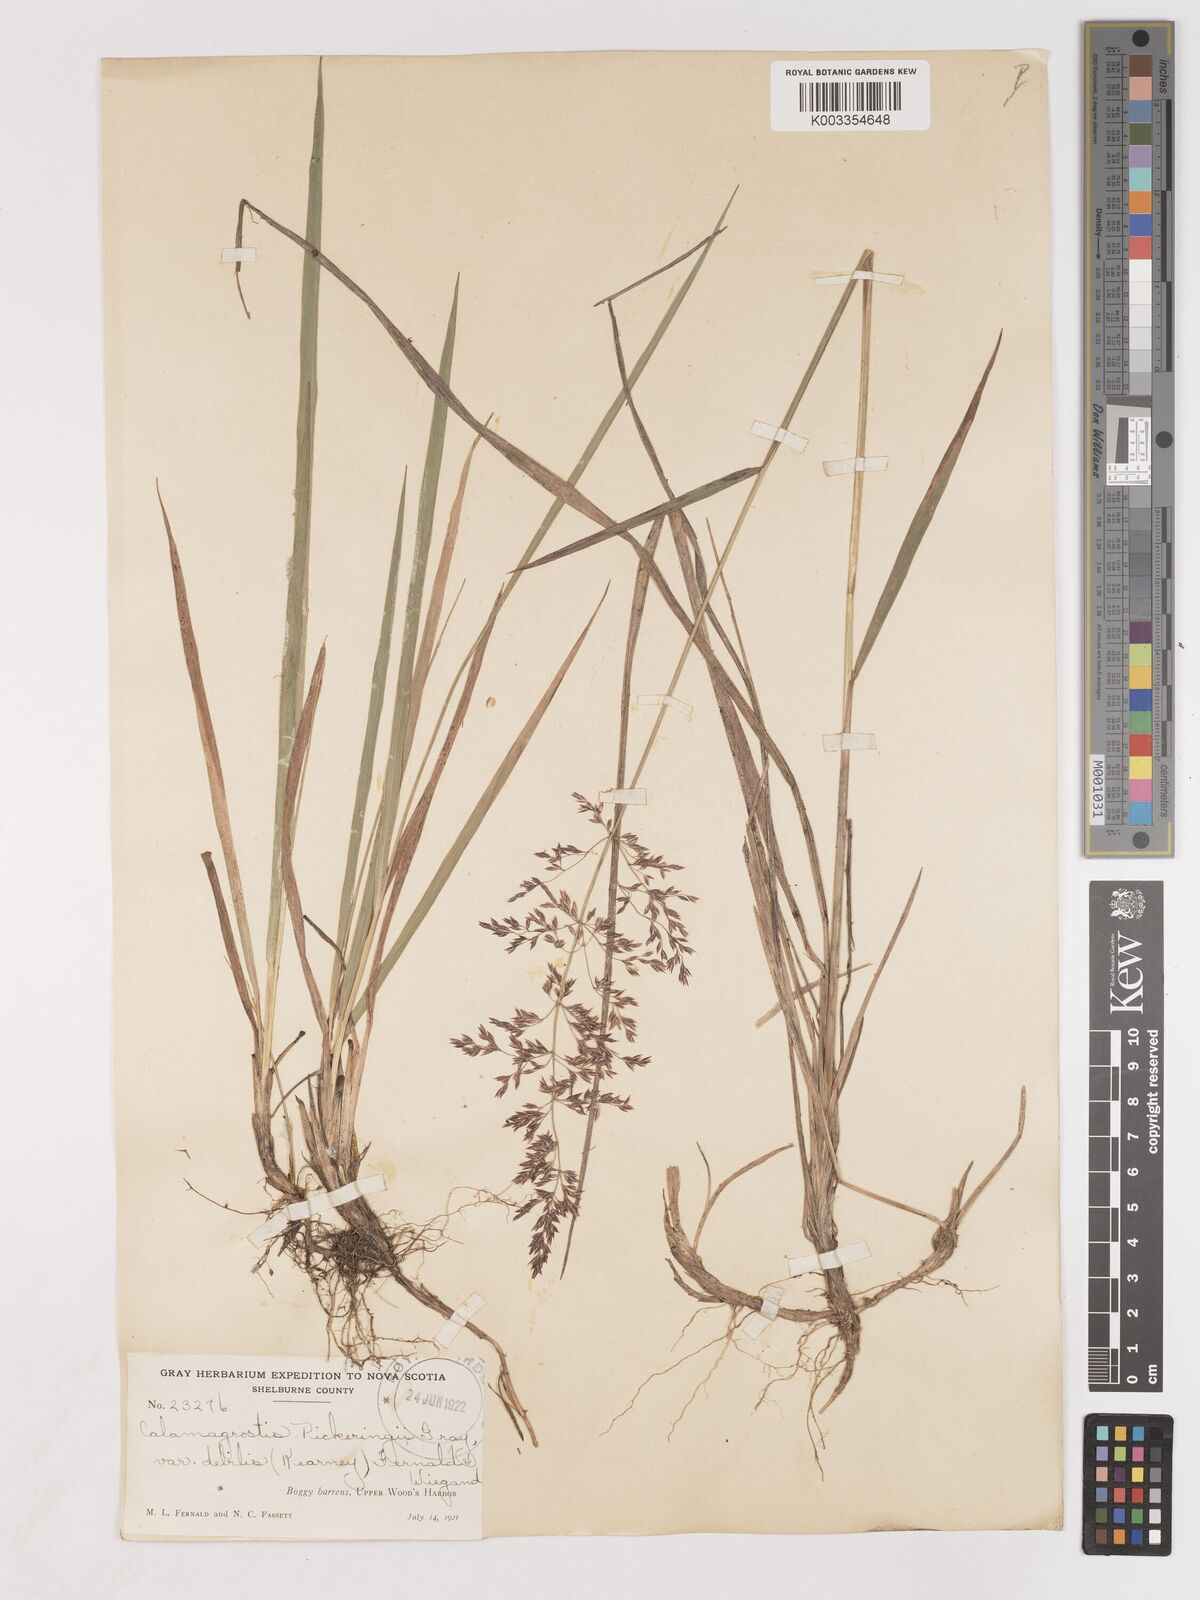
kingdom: Plantae
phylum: Tracheophyta
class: Liliopsida
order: Poales
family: Poaceae
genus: Calamagrostis
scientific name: Calamagrostis pickeringii
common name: Pickering's reed bentgrass
